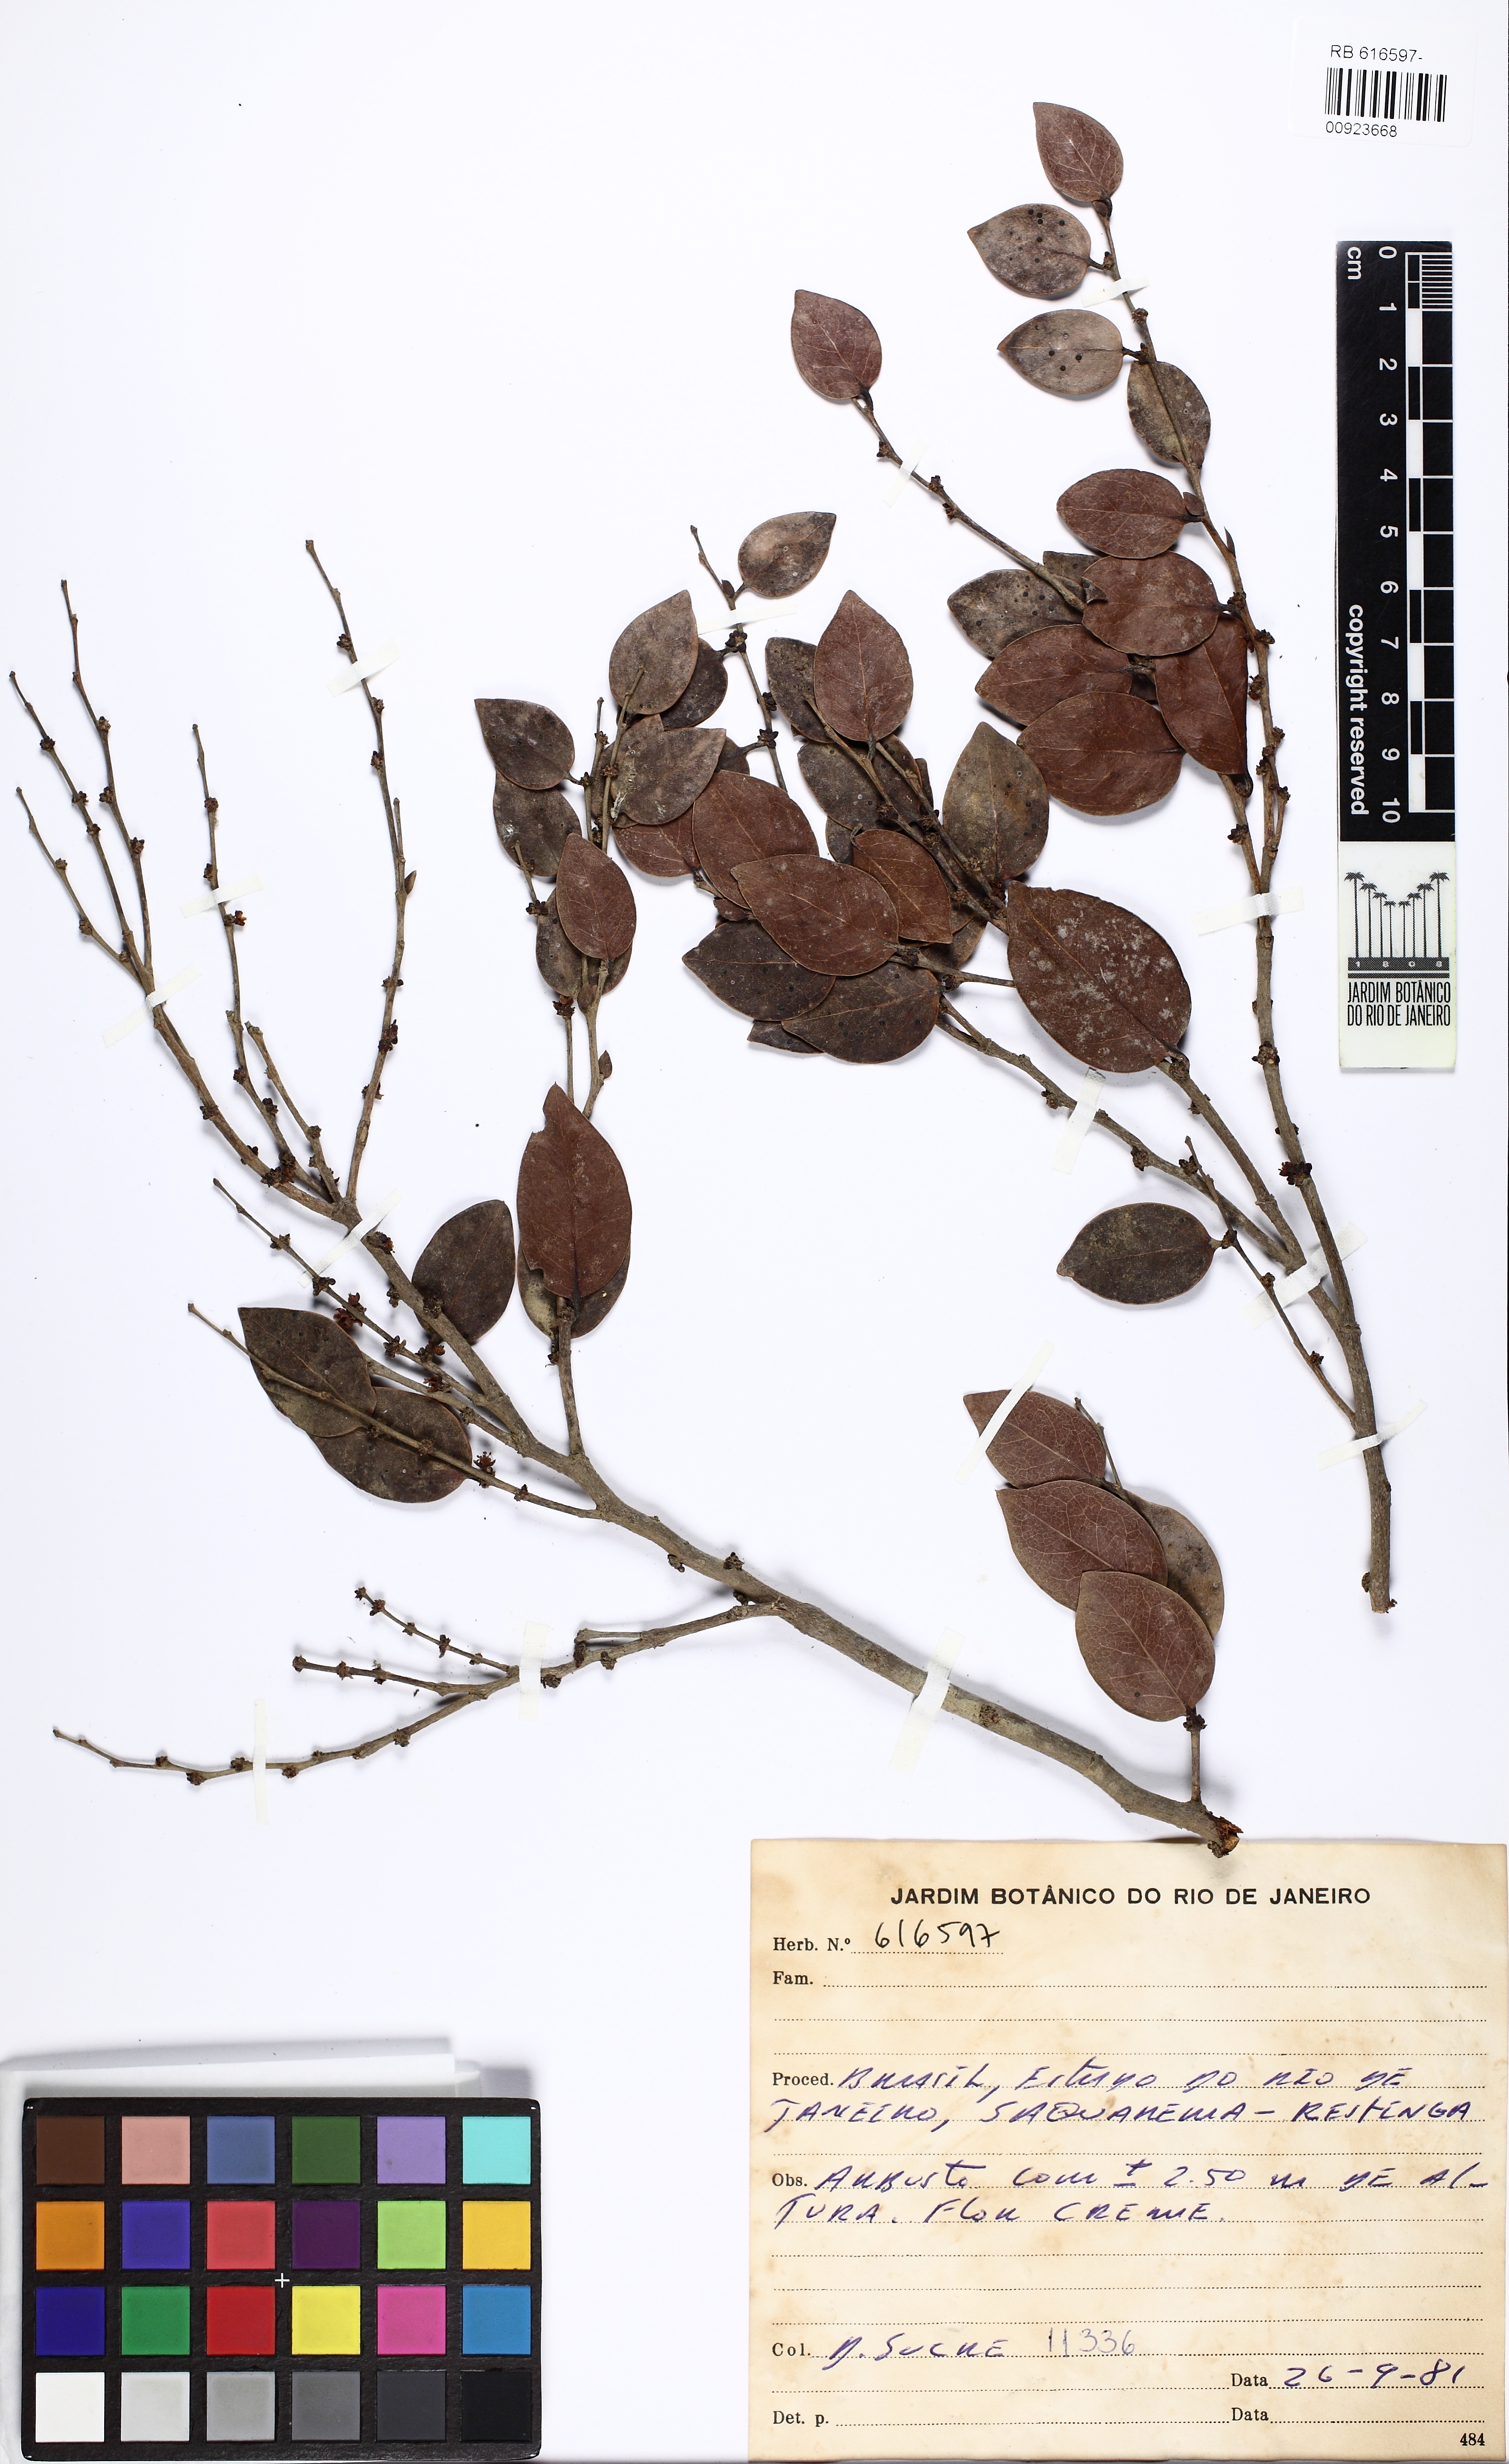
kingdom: Plantae
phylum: Tracheophyta
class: Magnoliopsida
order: Santalales
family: Olacaceae
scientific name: Olacaceae
